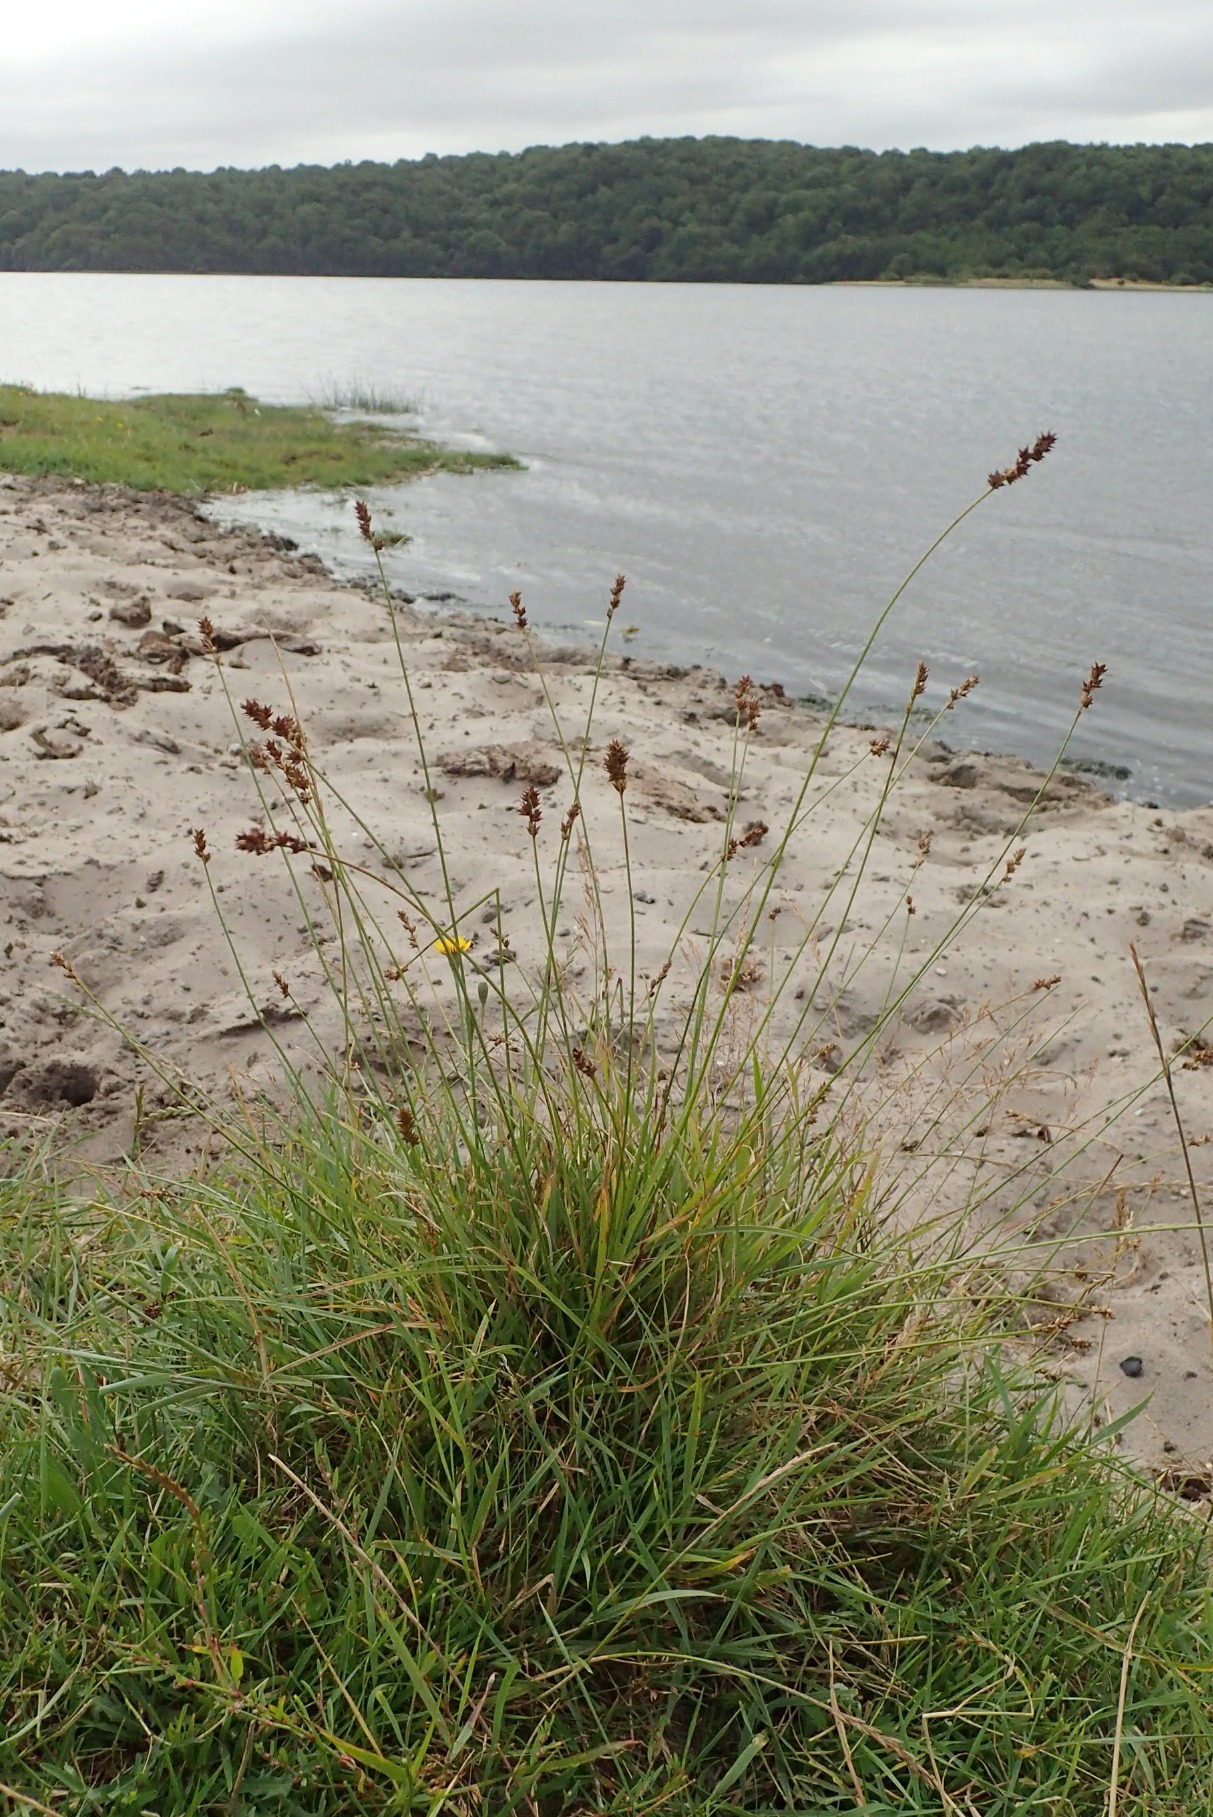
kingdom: Plantae
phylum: Tracheophyta
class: Liliopsida
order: Poales
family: Cyperaceae
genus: Carex
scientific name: Carex pairae
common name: Pigget star
